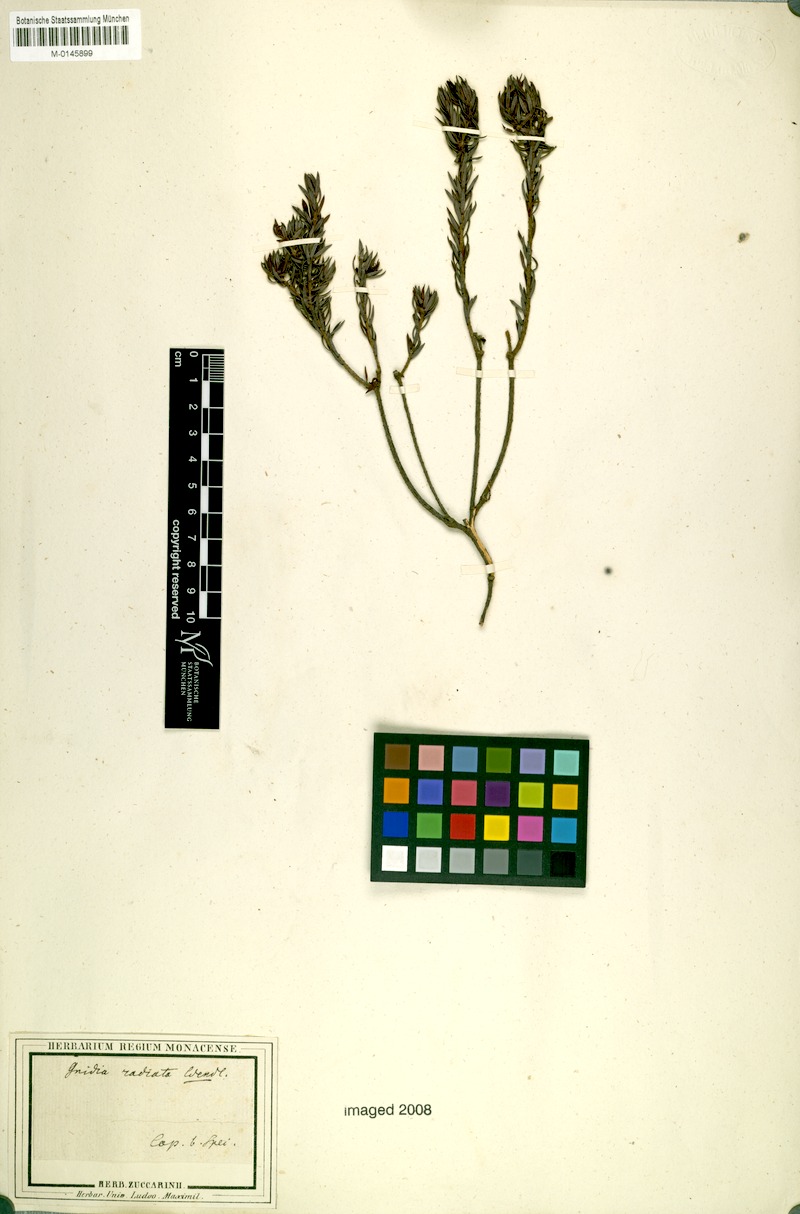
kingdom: Plantae
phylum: Tracheophyta
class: Magnoliopsida
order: Malvales
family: Thymelaeaceae
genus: Gnidia
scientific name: Gnidia juniperifolia
